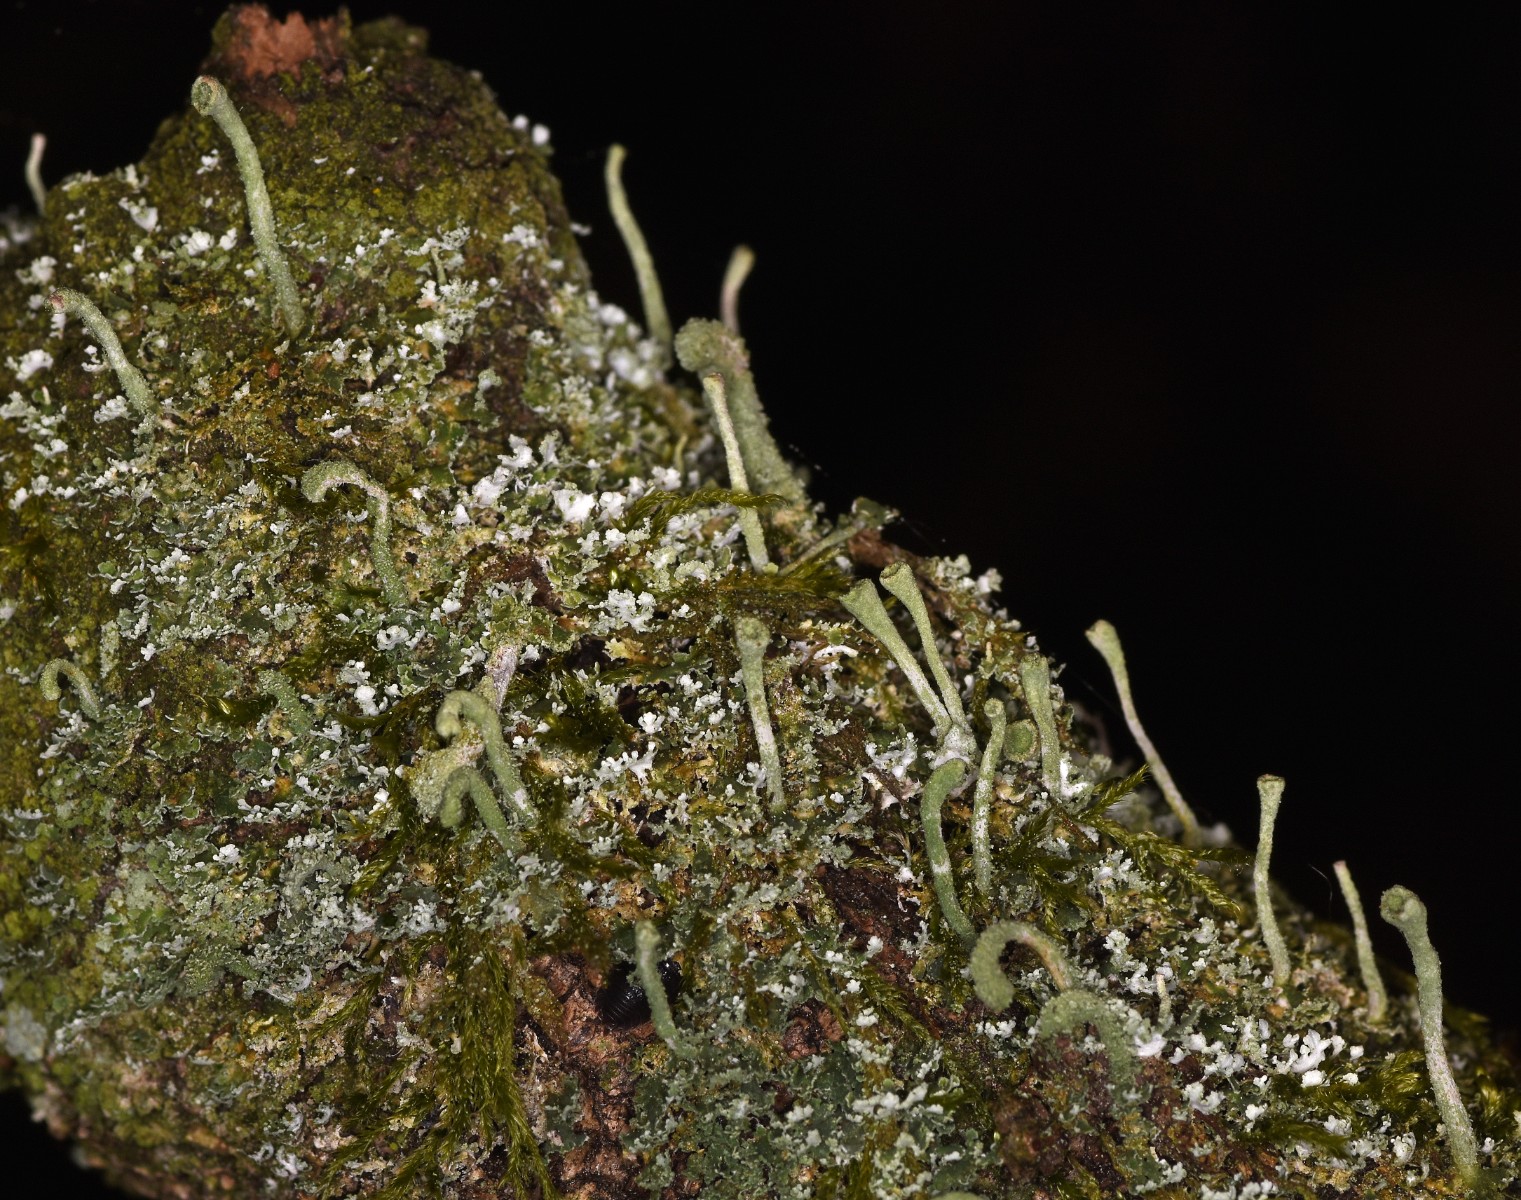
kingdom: Fungi
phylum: Ascomycota
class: Lecanoromycetes
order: Lecanorales
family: Cladoniaceae
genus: Cladonia
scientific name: Cladonia ochrochlora
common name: stød-bægerlav
